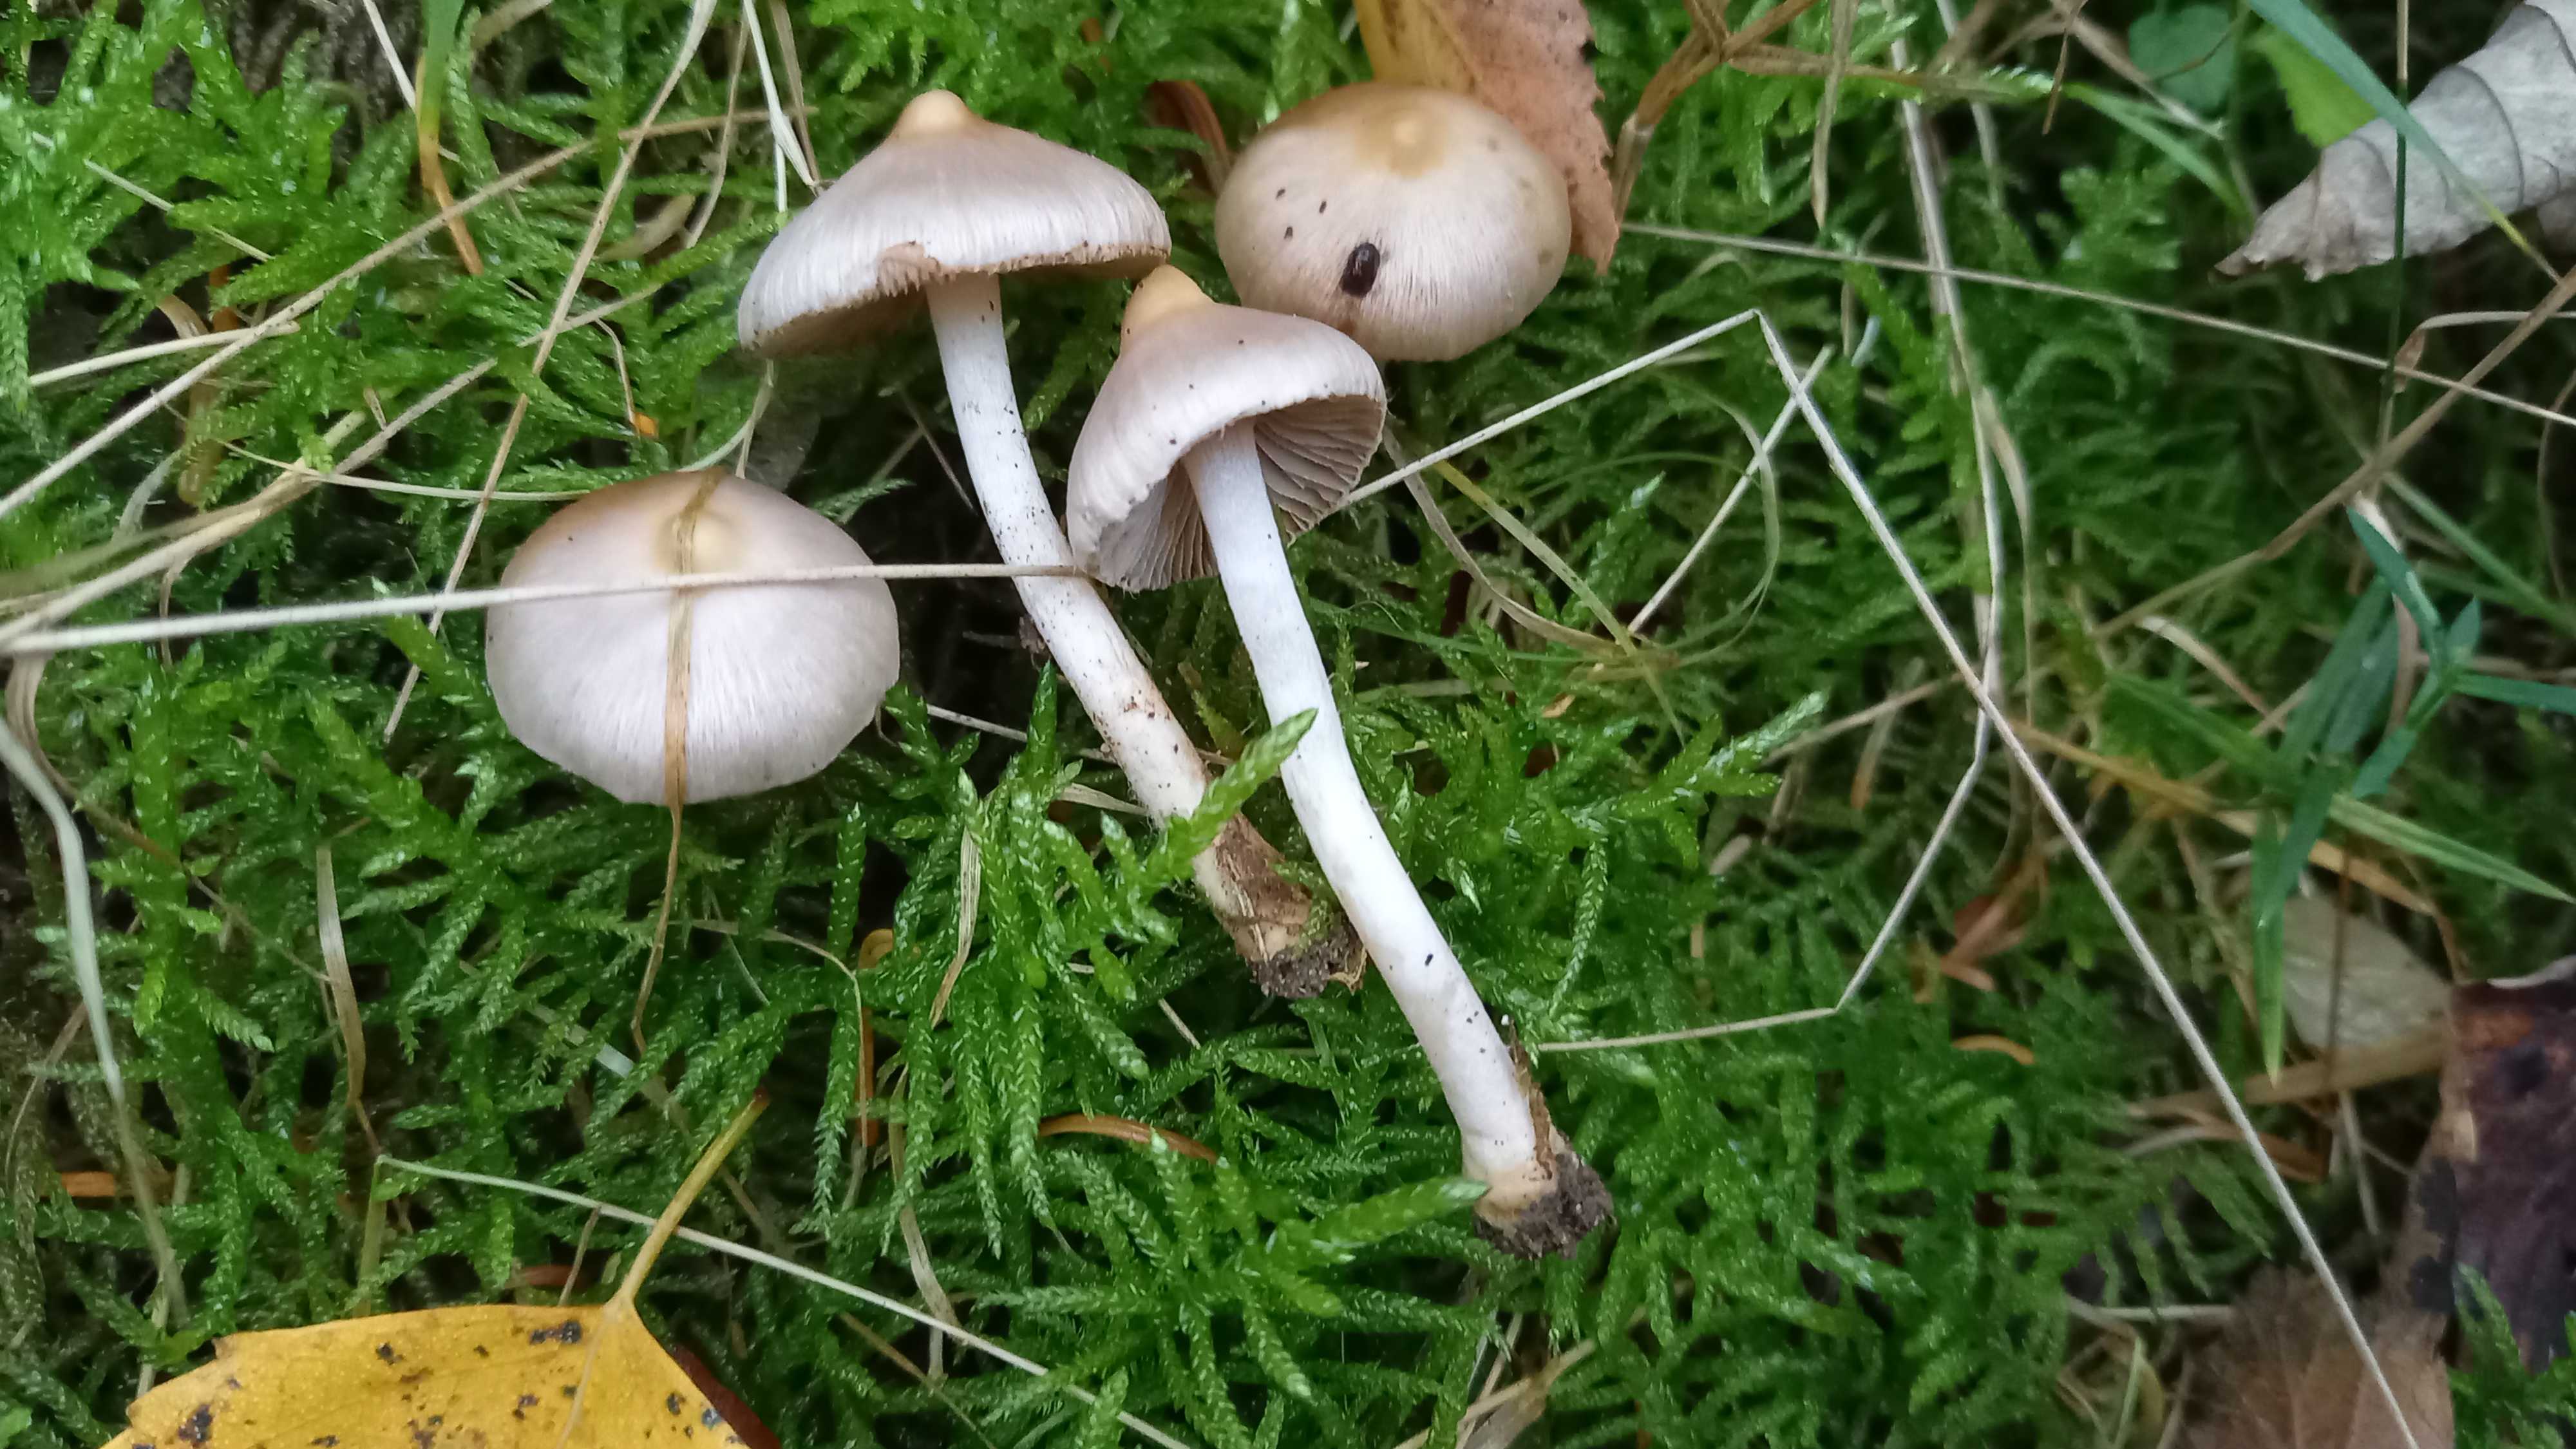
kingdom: Fungi
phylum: Basidiomycota
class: Agaricomycetes
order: Agaricales
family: Inocybaceae
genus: Inocybe
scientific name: Inocybe geophylla
